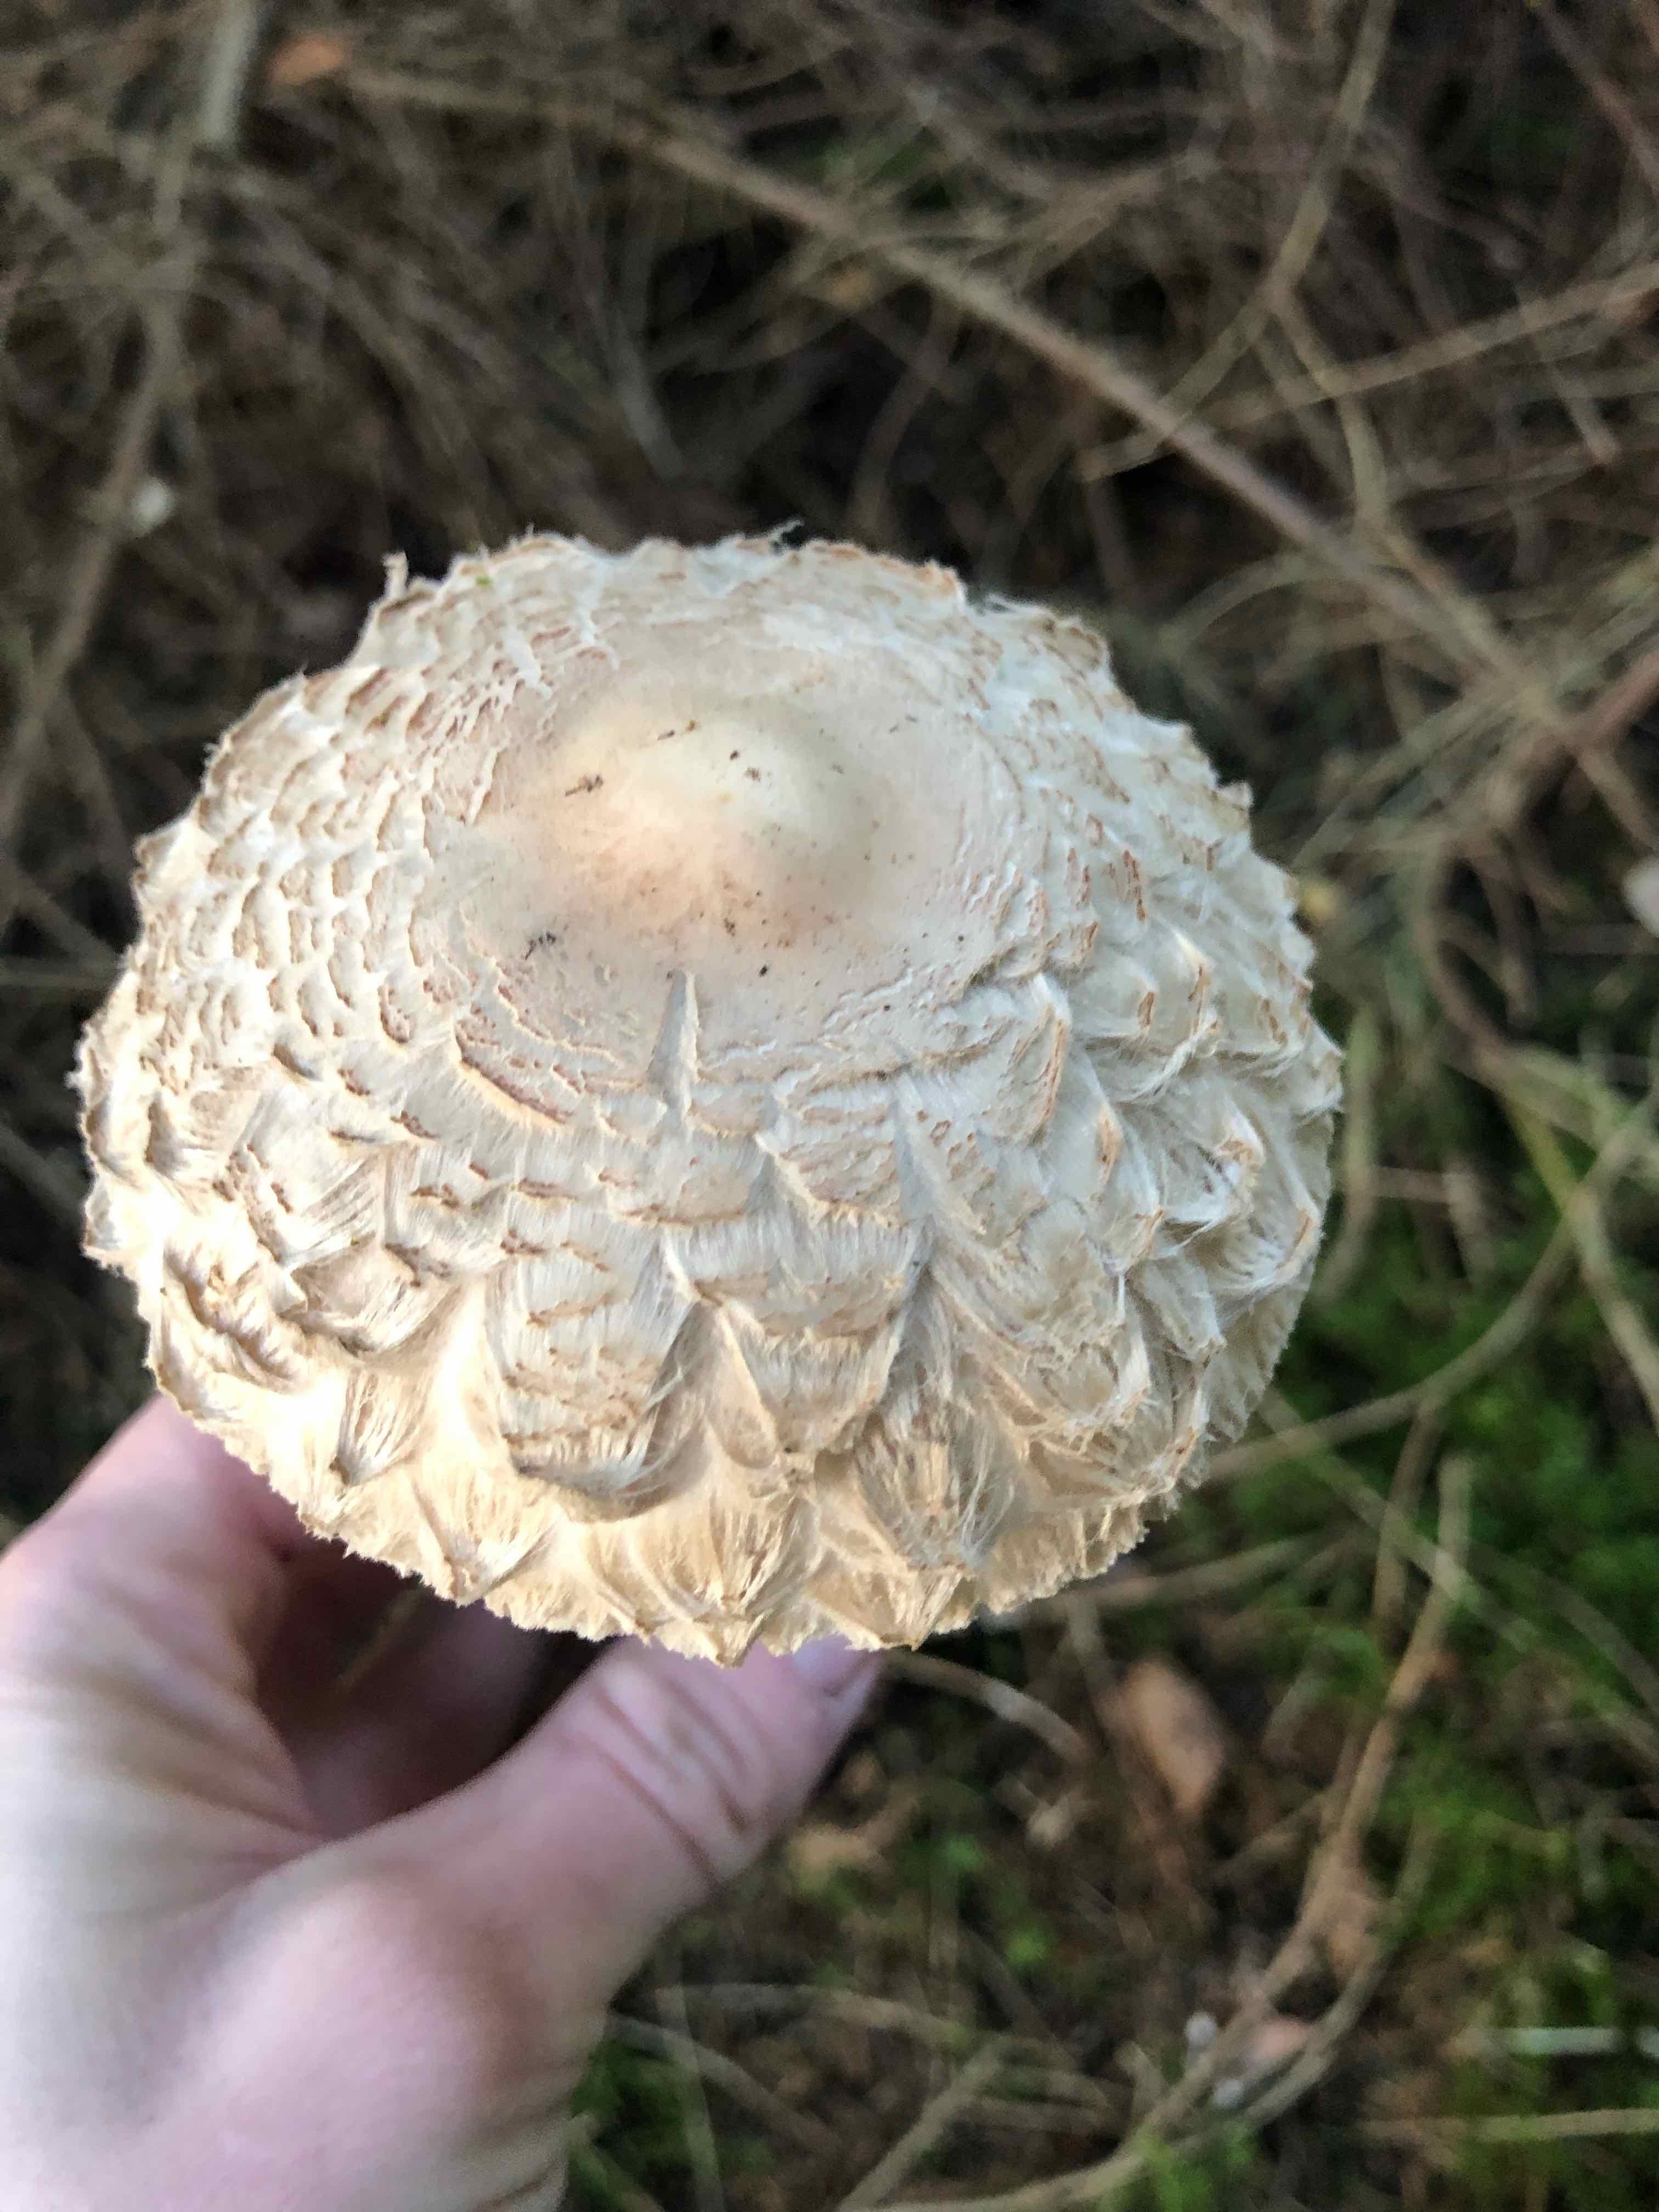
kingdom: Fungi
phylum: Basidiomycota
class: Agaricomycetes
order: Agaricales
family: Agaricaceae
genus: Chlorophyllum
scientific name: Chlorophyllum olivieri
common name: almindelig rabarberhat
